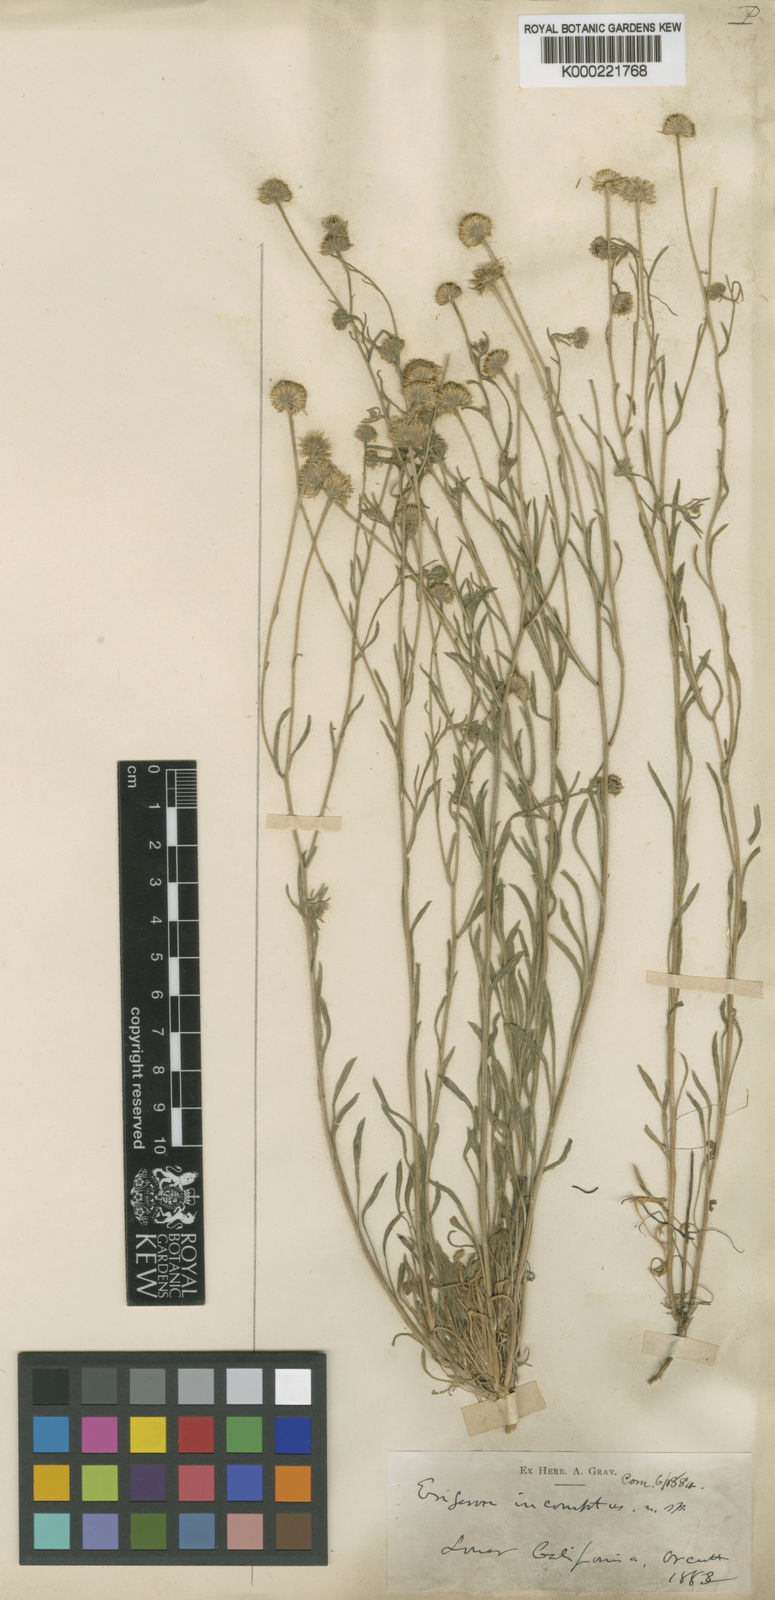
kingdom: Plantae
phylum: Tracheophyta
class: Magnoliopsida
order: Asterales
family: Asteraceae
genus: Erigeron
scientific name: Erigeron tracyi
